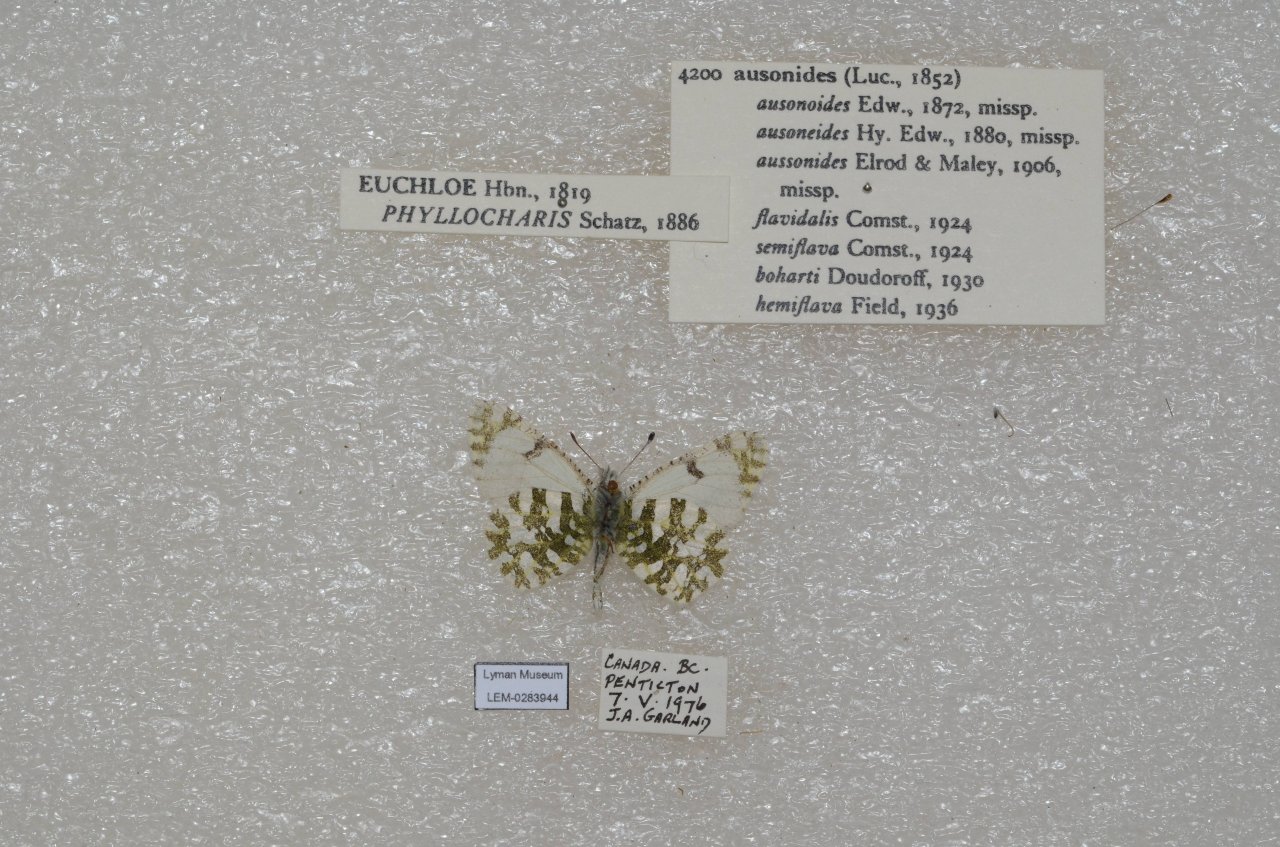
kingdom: Animalia
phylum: Arthropoda
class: Insecta
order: Lepidoptera
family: Pieridae
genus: Euchloe
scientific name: Euchloe ausonides
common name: Large Marble
